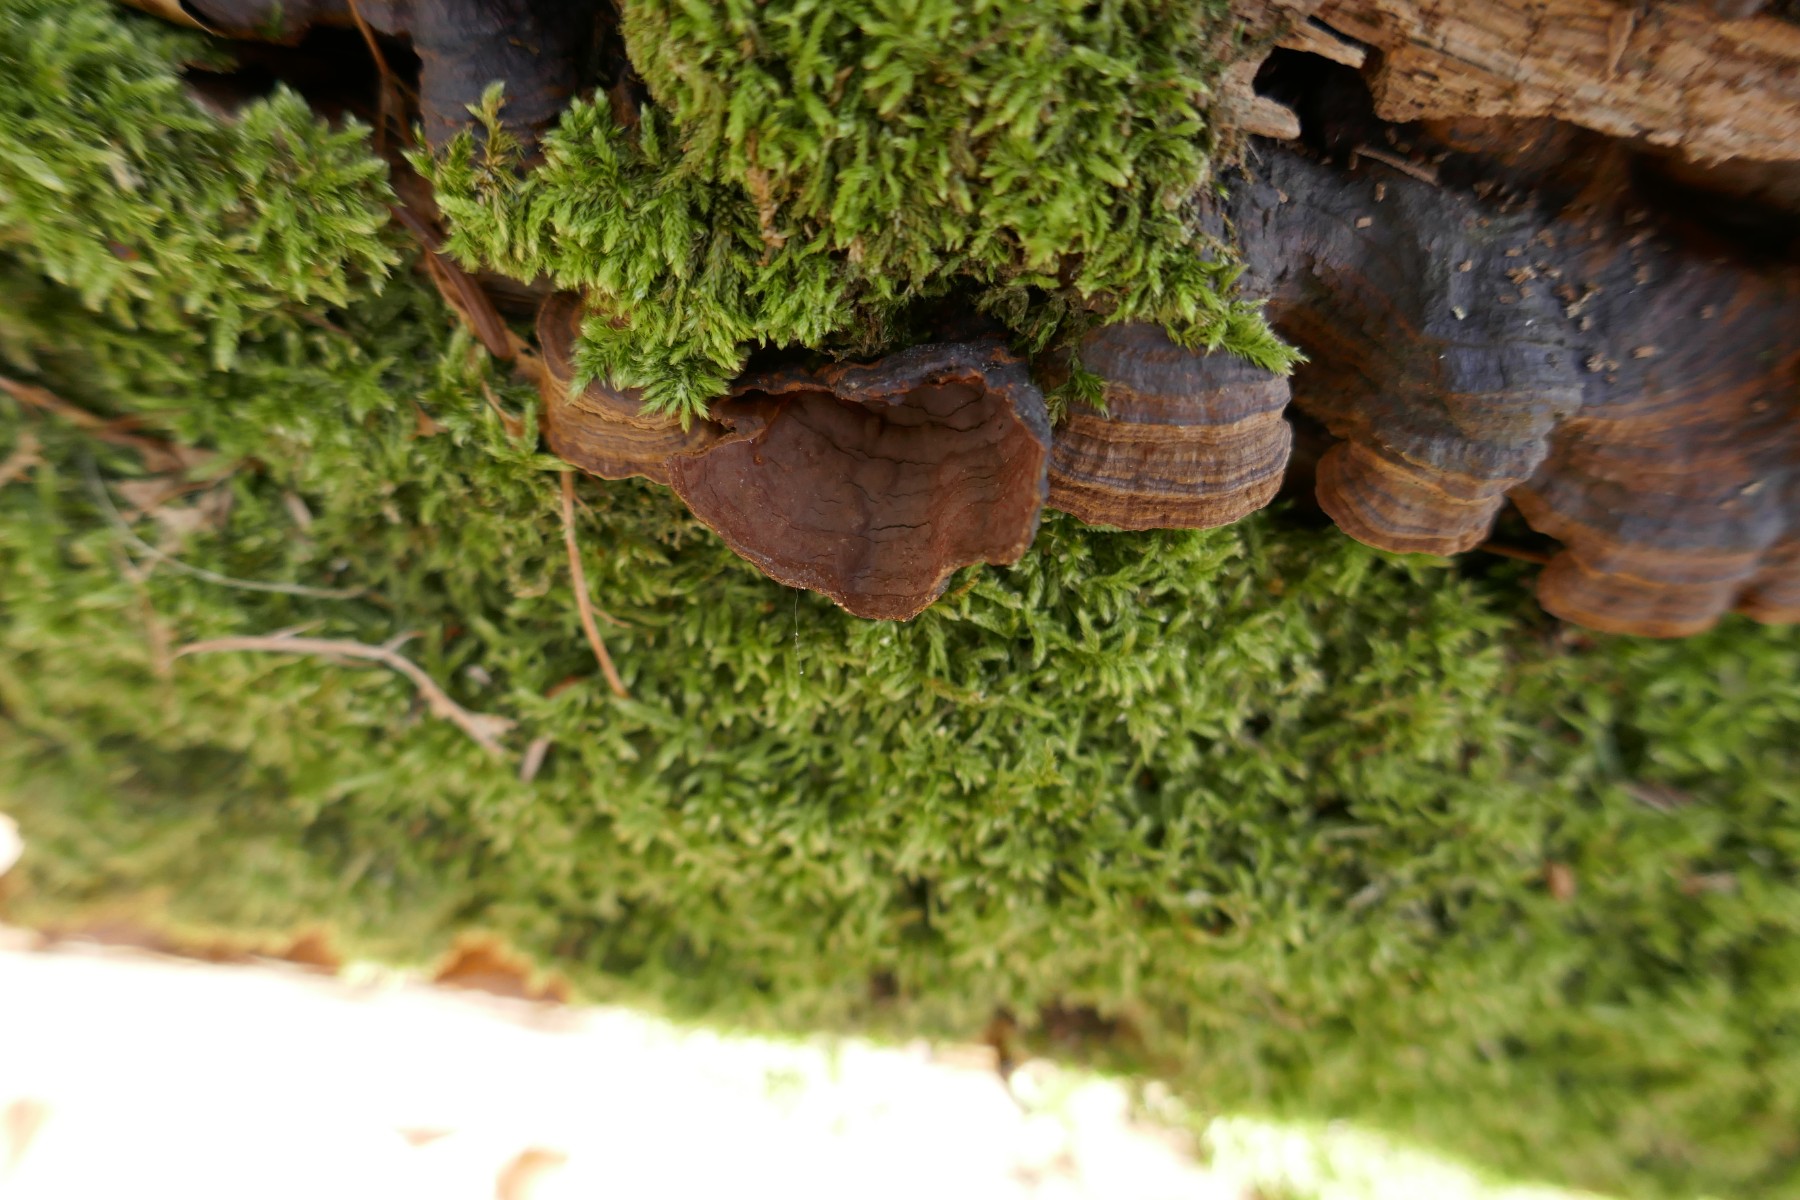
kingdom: Fungi
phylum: Basidiomycota
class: Agaricomycetes
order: Hymenochaetales
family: Hymenochaetaceae
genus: Hymenochaete
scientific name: Hymenochaete rubiginosa
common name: stiv ruslædersvamp
